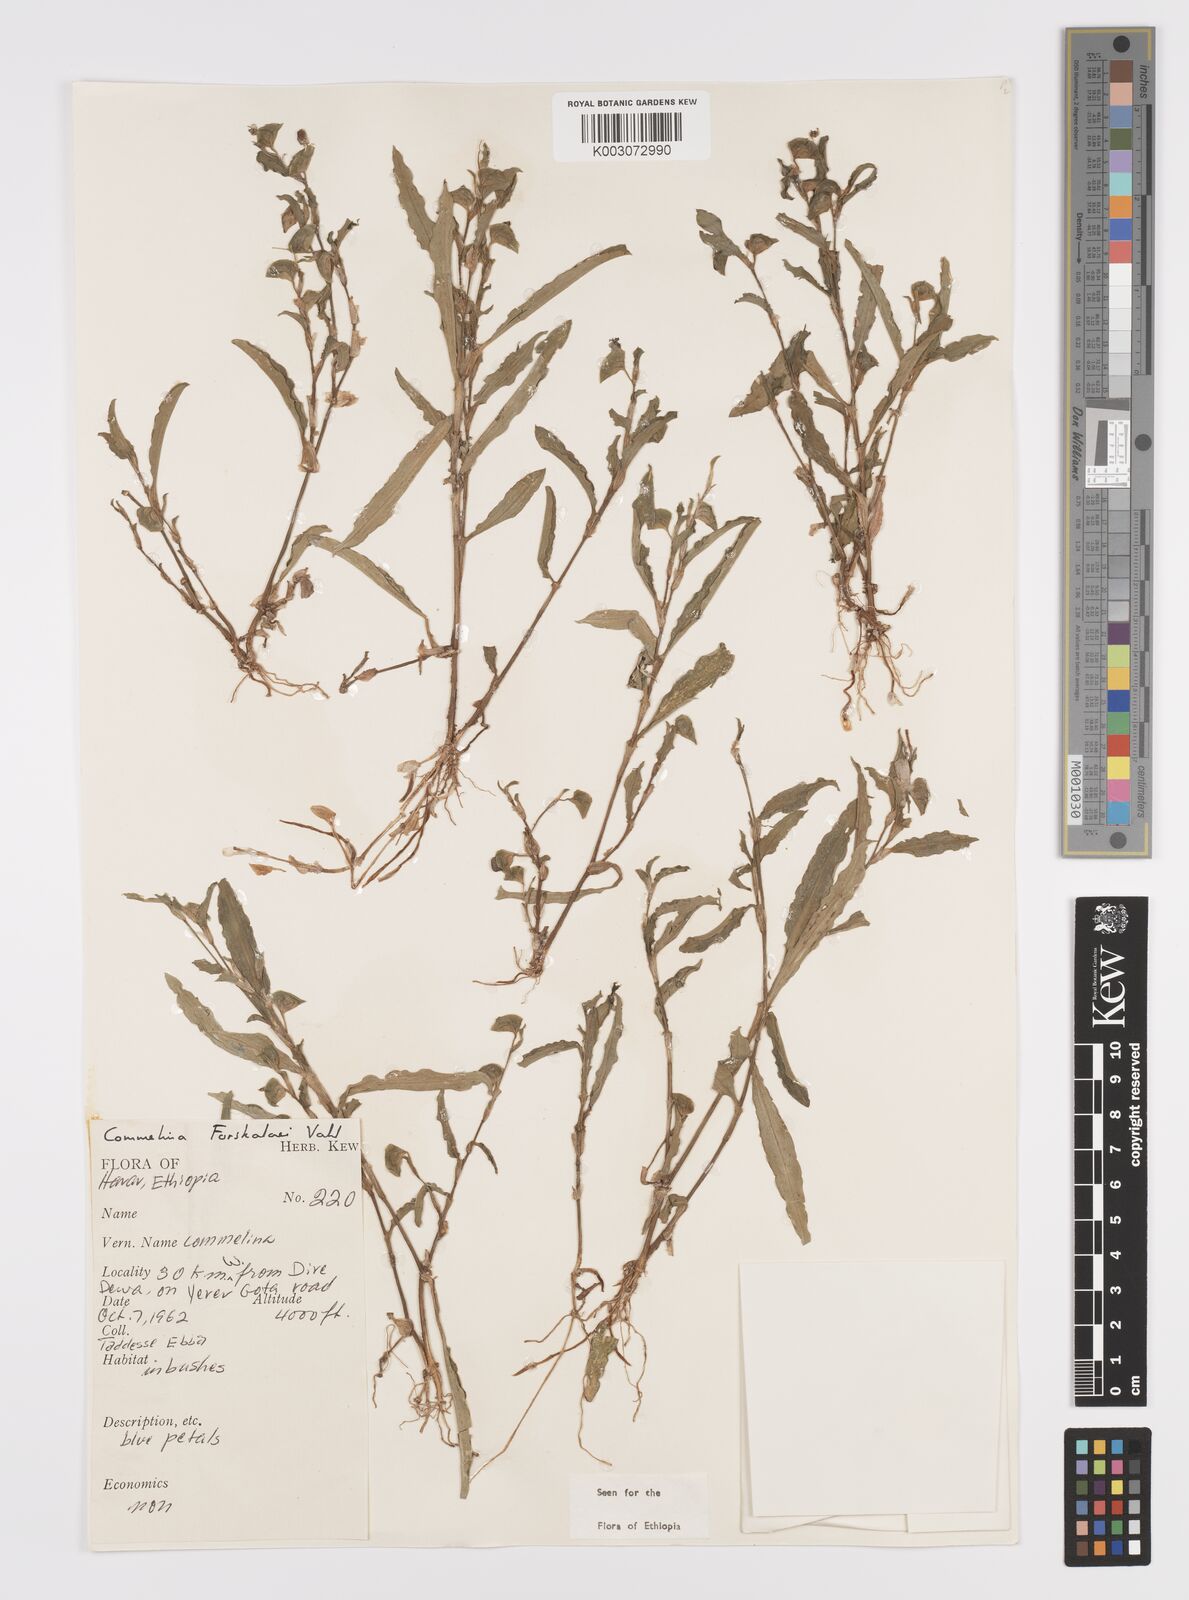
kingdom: Plantae
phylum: Tracheophyta
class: Liliopsida
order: Commelinales
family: Commelinaceae
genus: Commelina
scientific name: Commelina forskaolii
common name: Rat's ear
